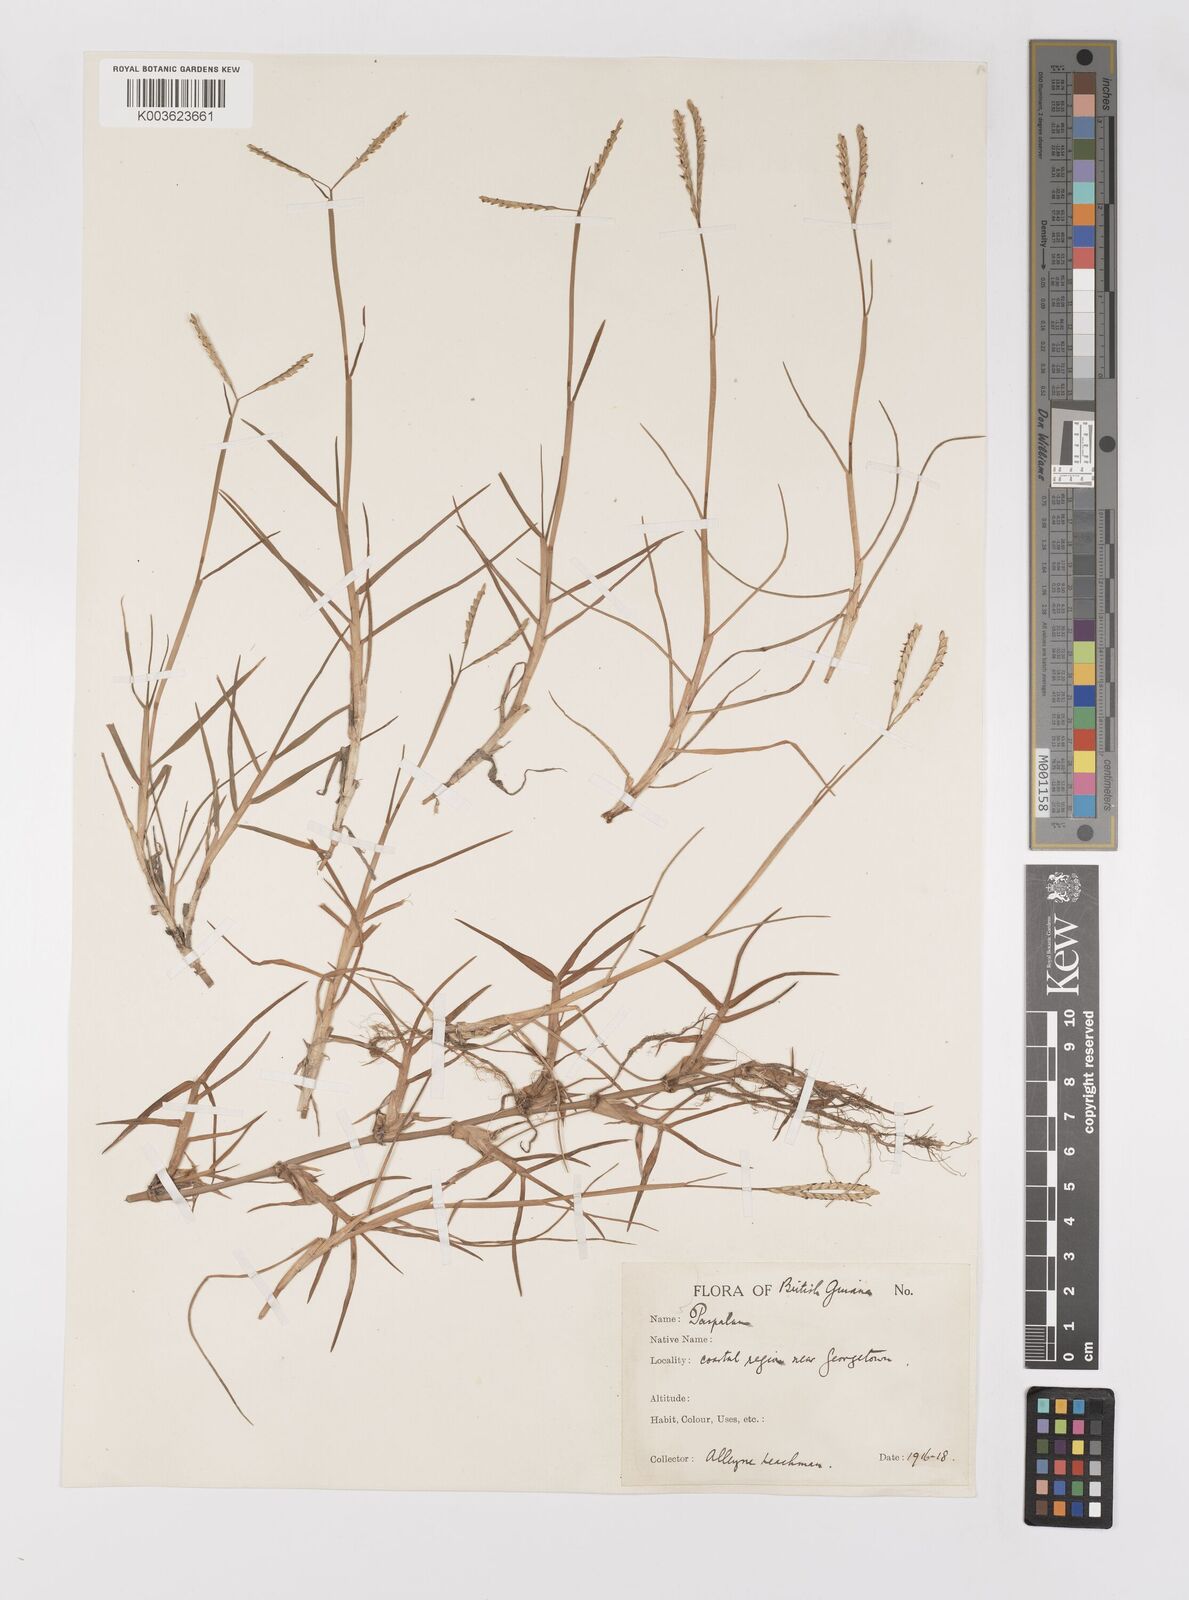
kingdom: Plantae
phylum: Tracheophyta
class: Liliopsida
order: Poales
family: Poaceae
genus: Paspalum
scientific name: Paspalum vaginatum
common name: Seashore paspalum
